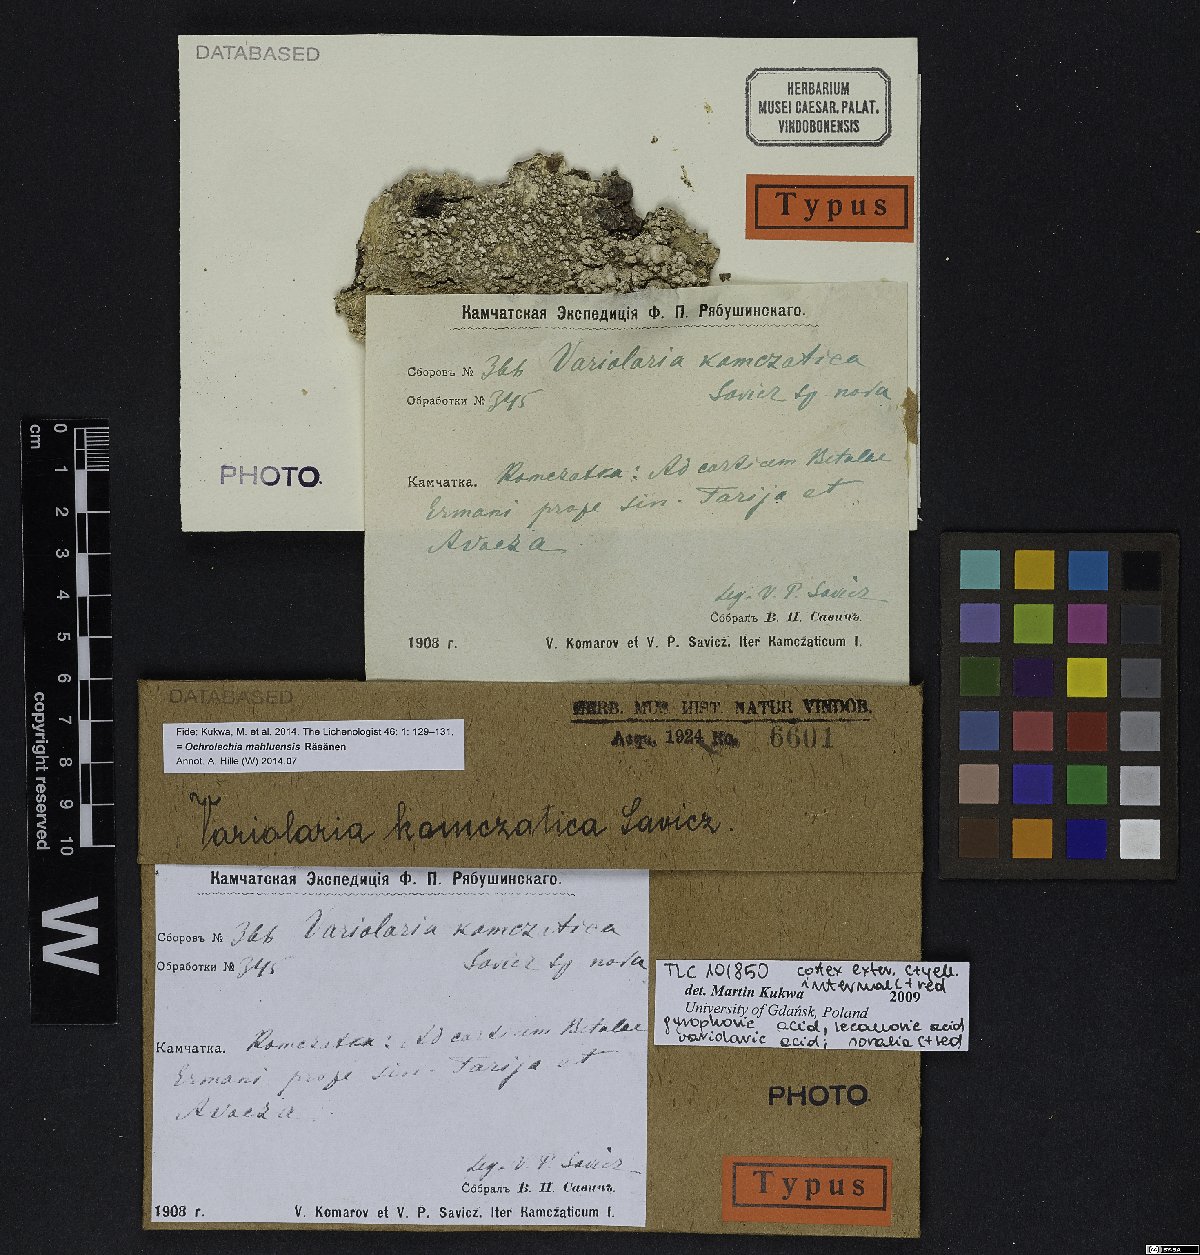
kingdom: Fungi
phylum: Ascomycota
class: Dothideomycetes
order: Capnodiales
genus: Variolaria
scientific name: Variolaria
